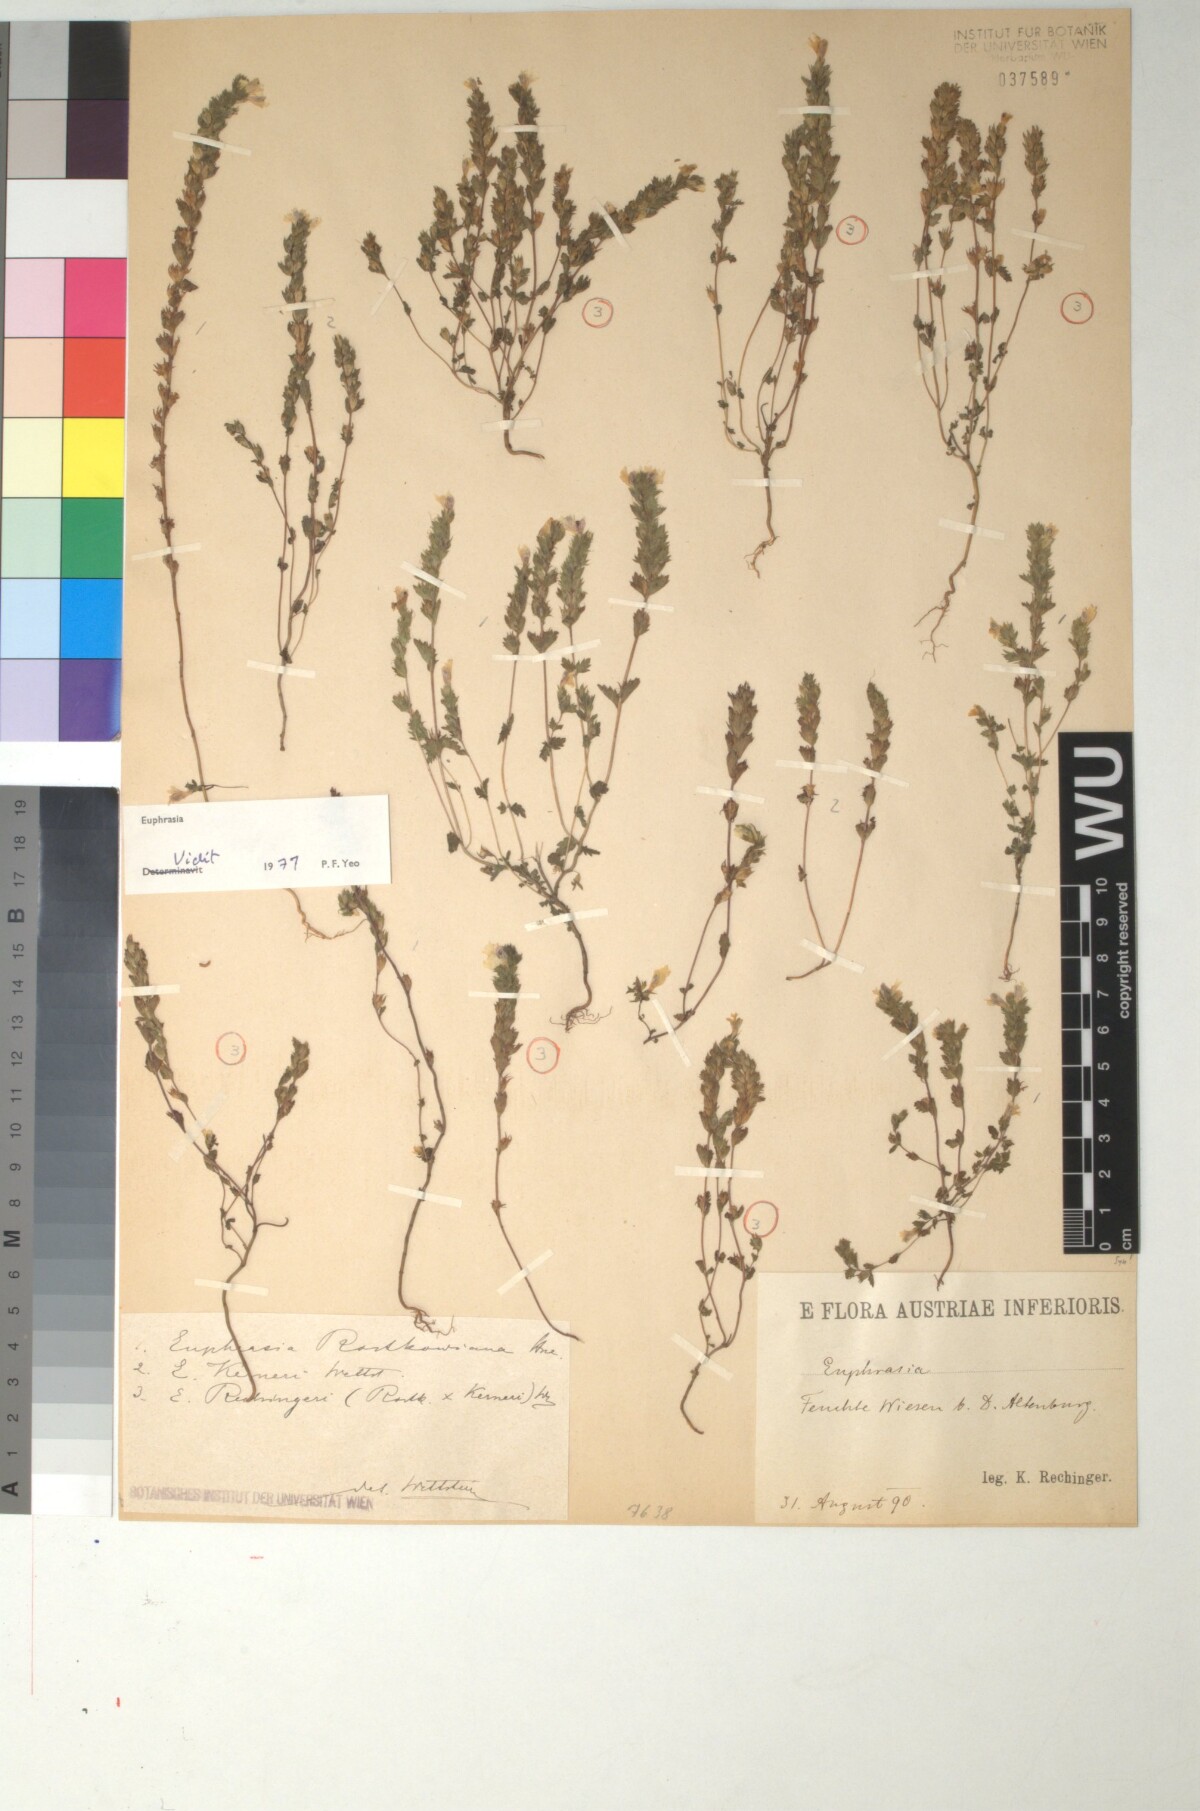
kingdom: Plantae
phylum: Tracheophyta
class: Magnoliopsida
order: Lamiales
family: Scrophulariaceae
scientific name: Scrophulariaceae
